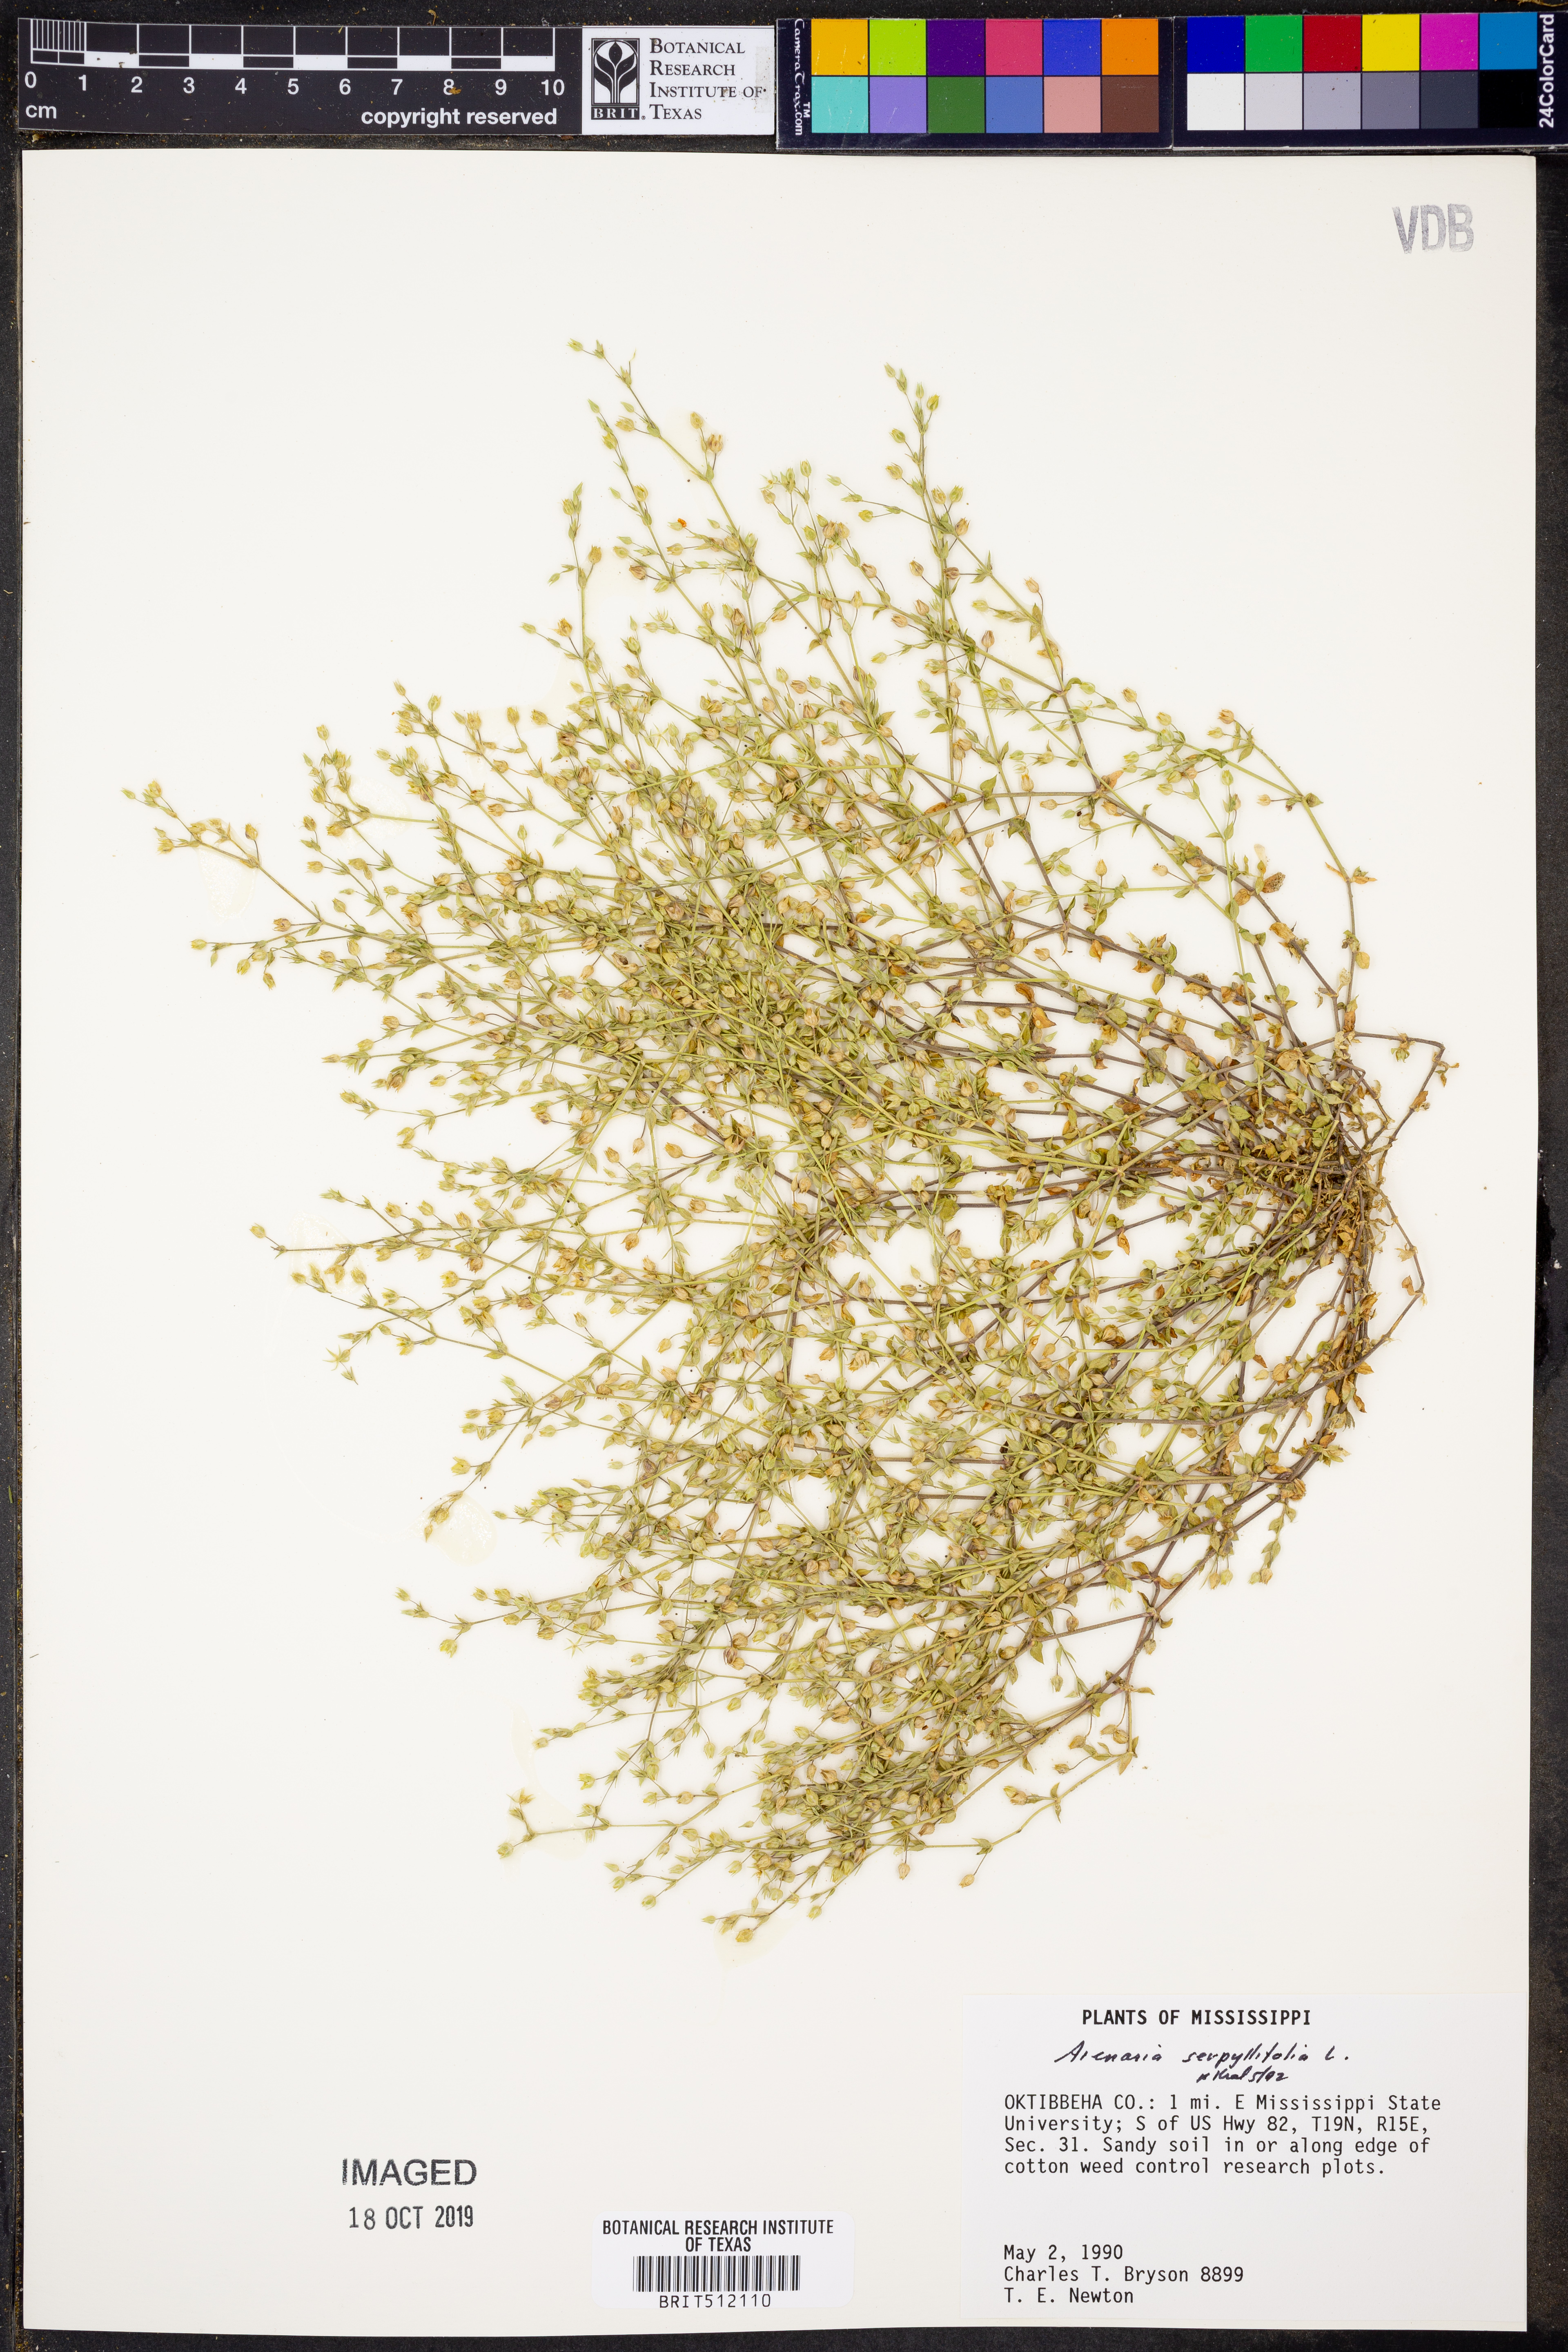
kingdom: Plantae
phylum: Tracheophyta
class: Magnoliopsida
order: Caryophyllales
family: Caryophyllaceae
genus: Arenaria
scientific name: Arenaria serpyllifolia
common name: Thyme-leaved sandwort
